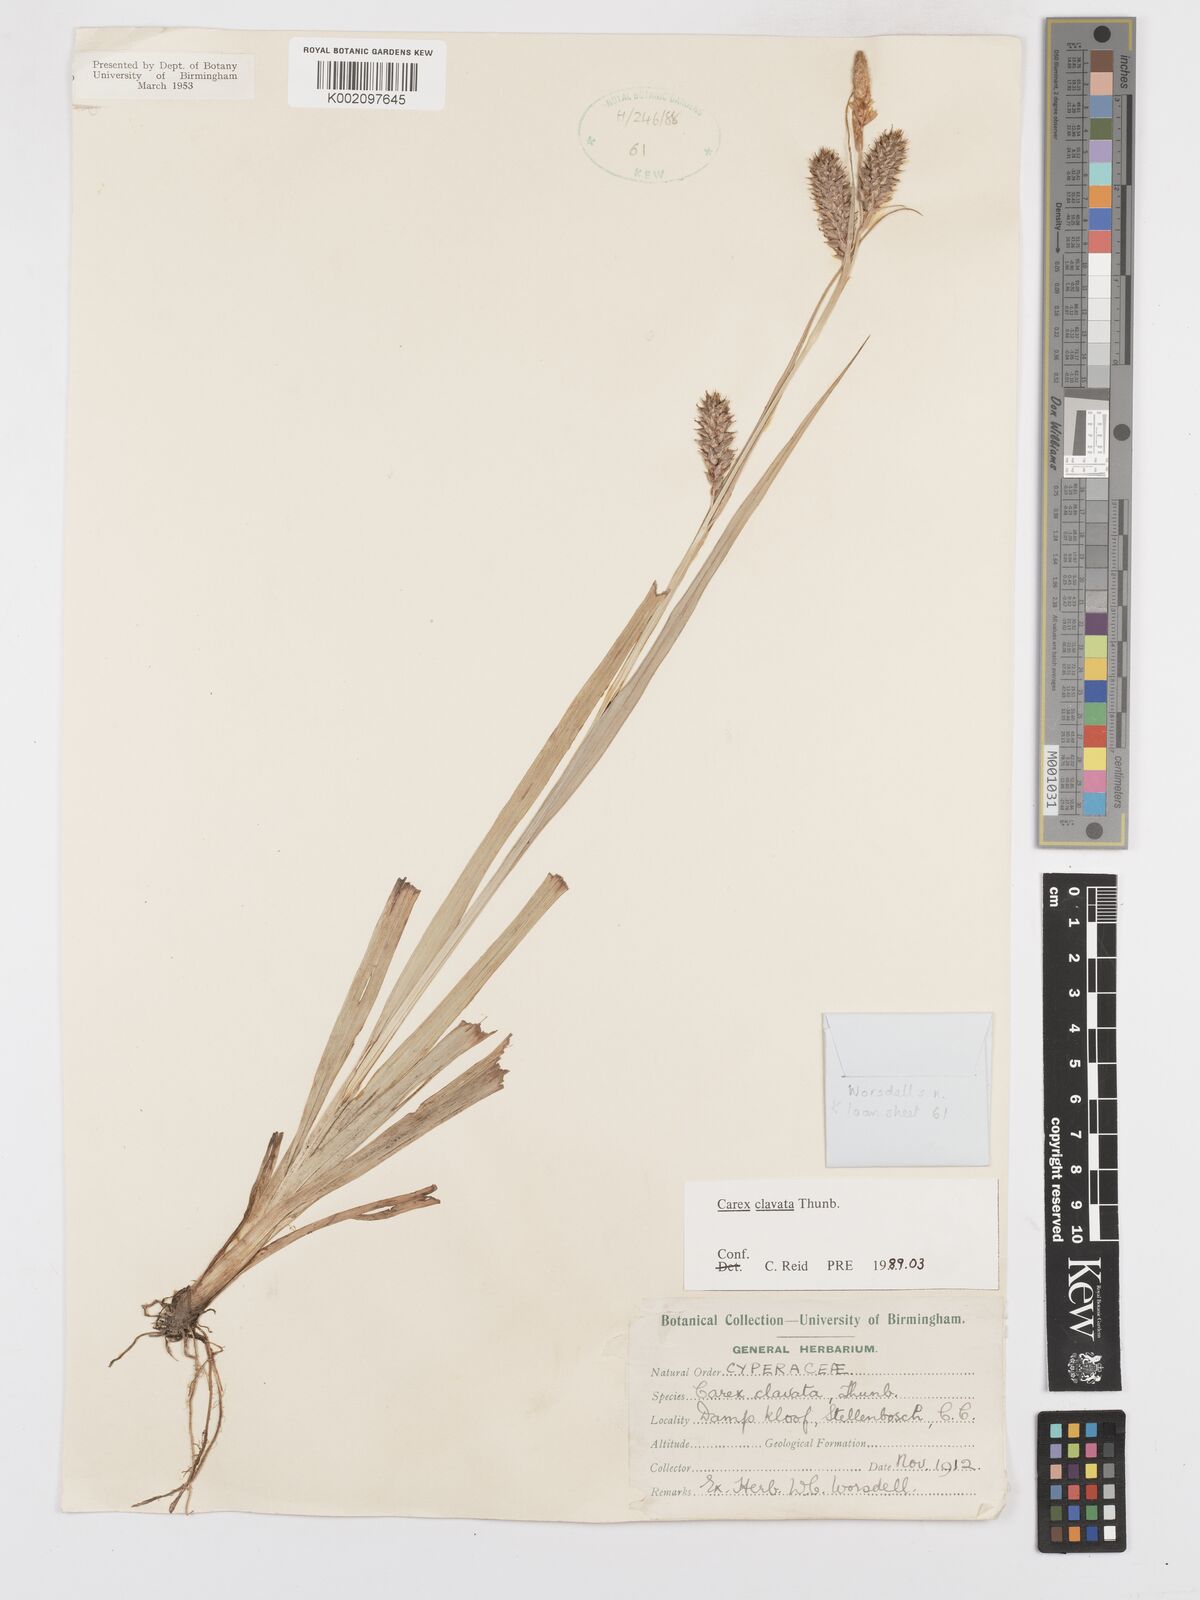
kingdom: Plantae
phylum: Tracheophyta
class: Liliopsida
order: Poales
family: Cyperaceae
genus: Carex
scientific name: Carex clavata
